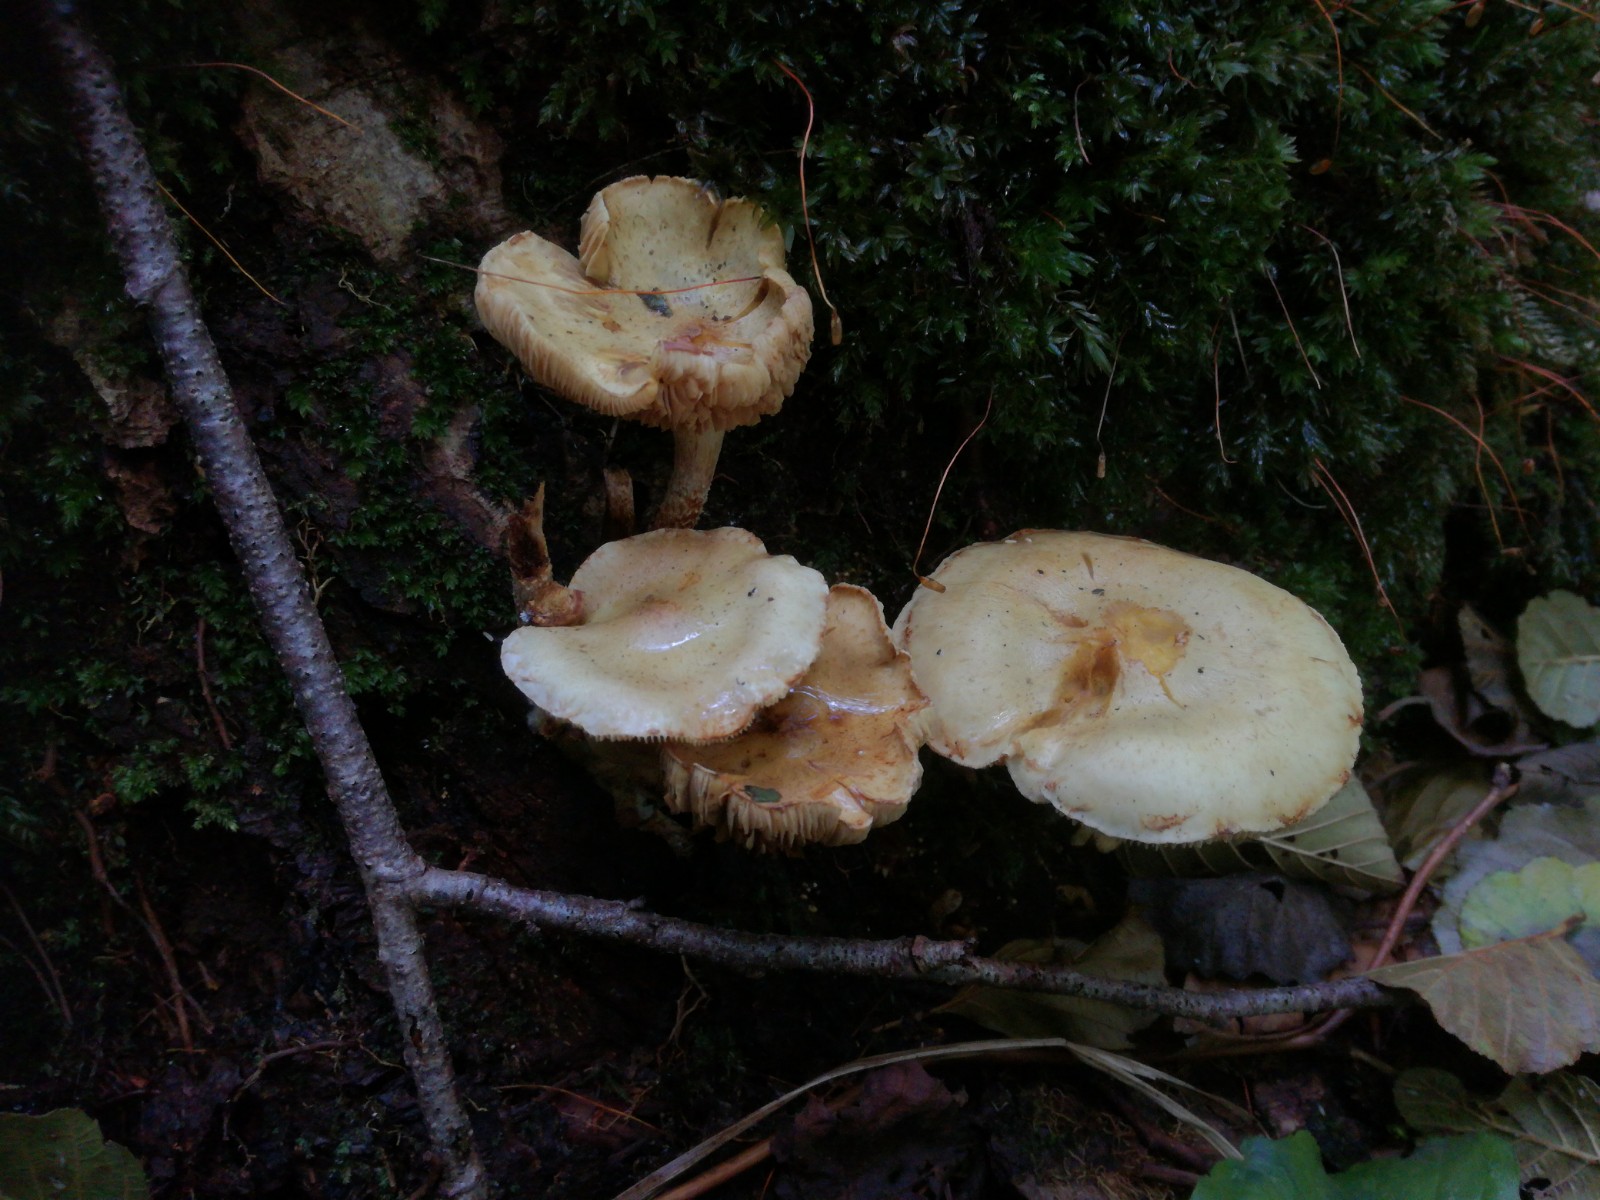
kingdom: Fungi
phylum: Basidiomycota
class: Agaricomycetes
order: Agaricales
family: Hymenogastraceae
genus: Flammula
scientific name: Flammula alnicola
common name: elle-skælhat
